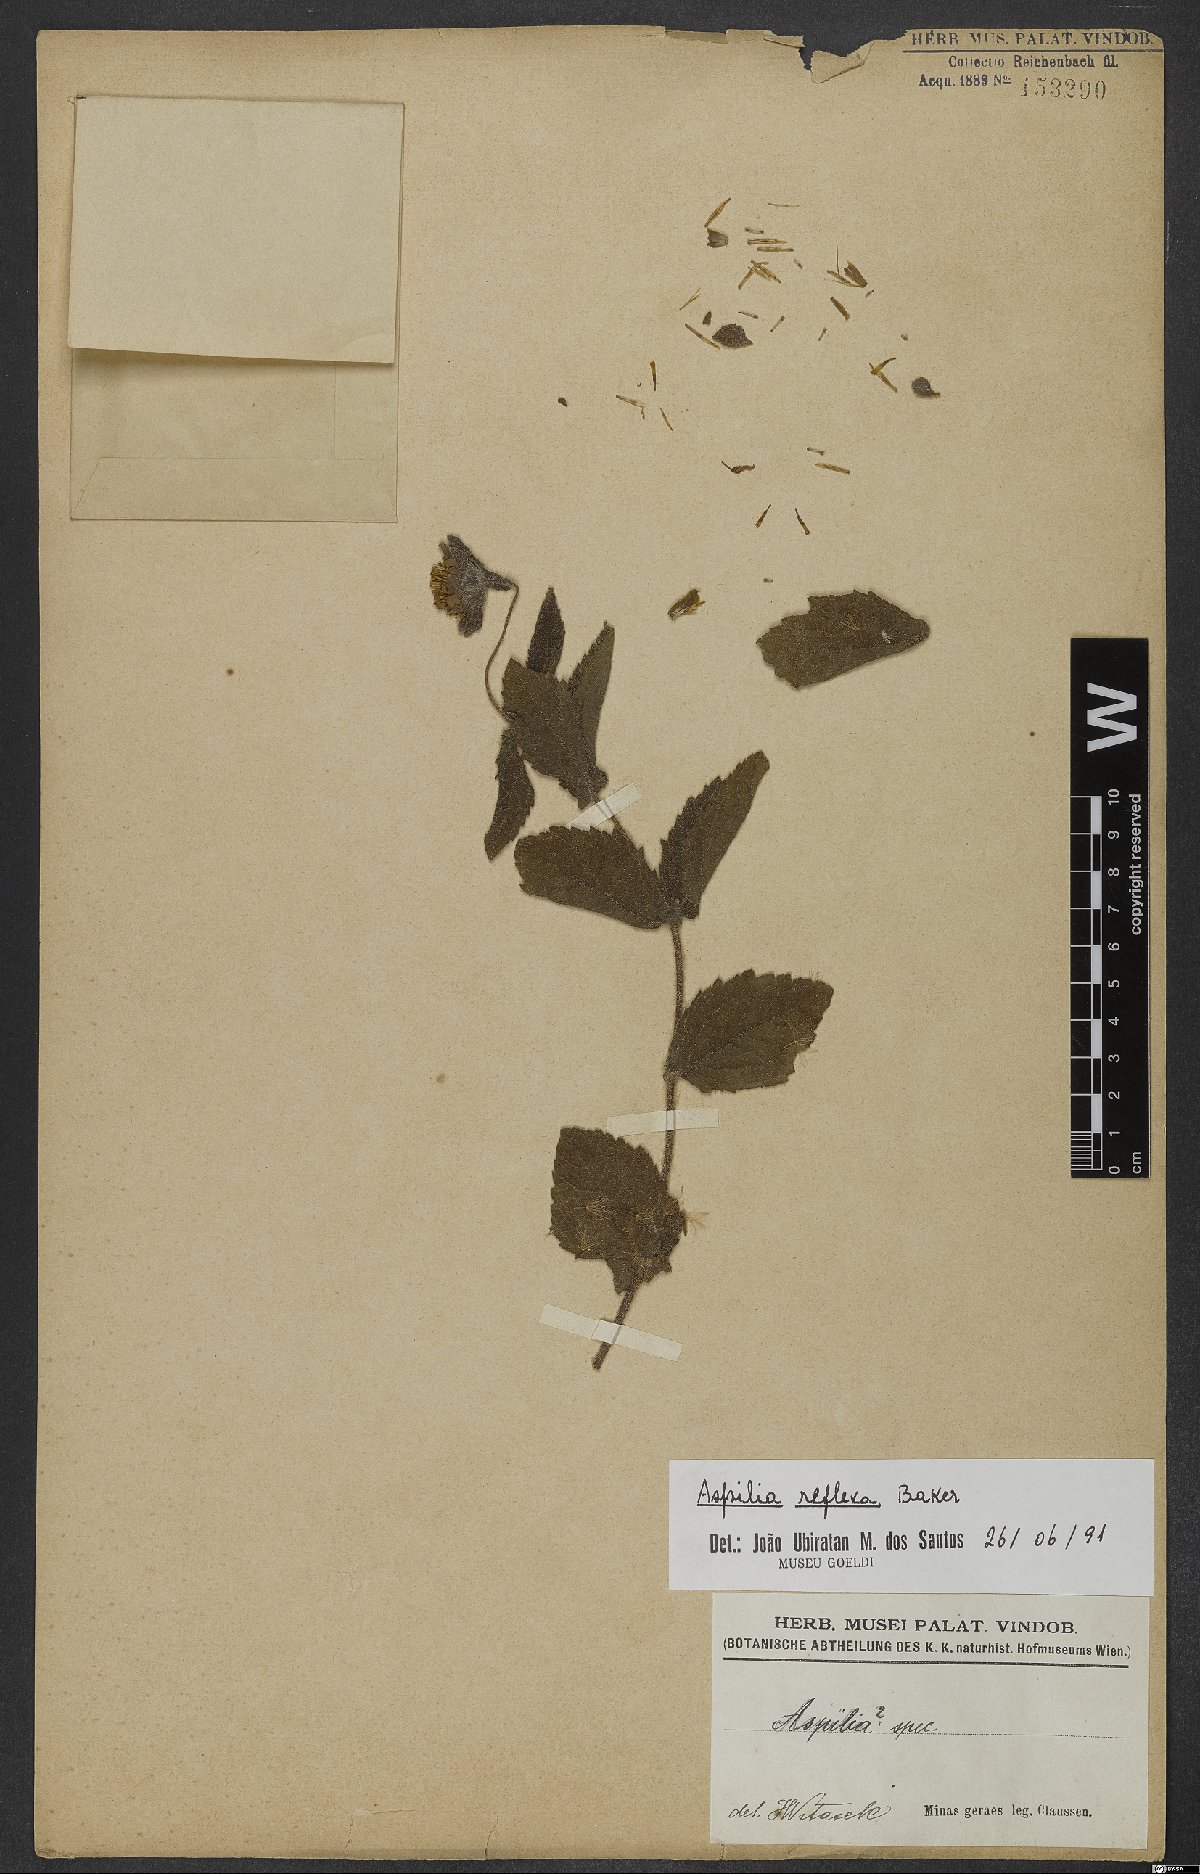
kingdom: Plantae
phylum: Tracheophyta
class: Magnoliopsida
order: Asterales
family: Asteraceae
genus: Wedelia
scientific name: Wedelia reflexa
